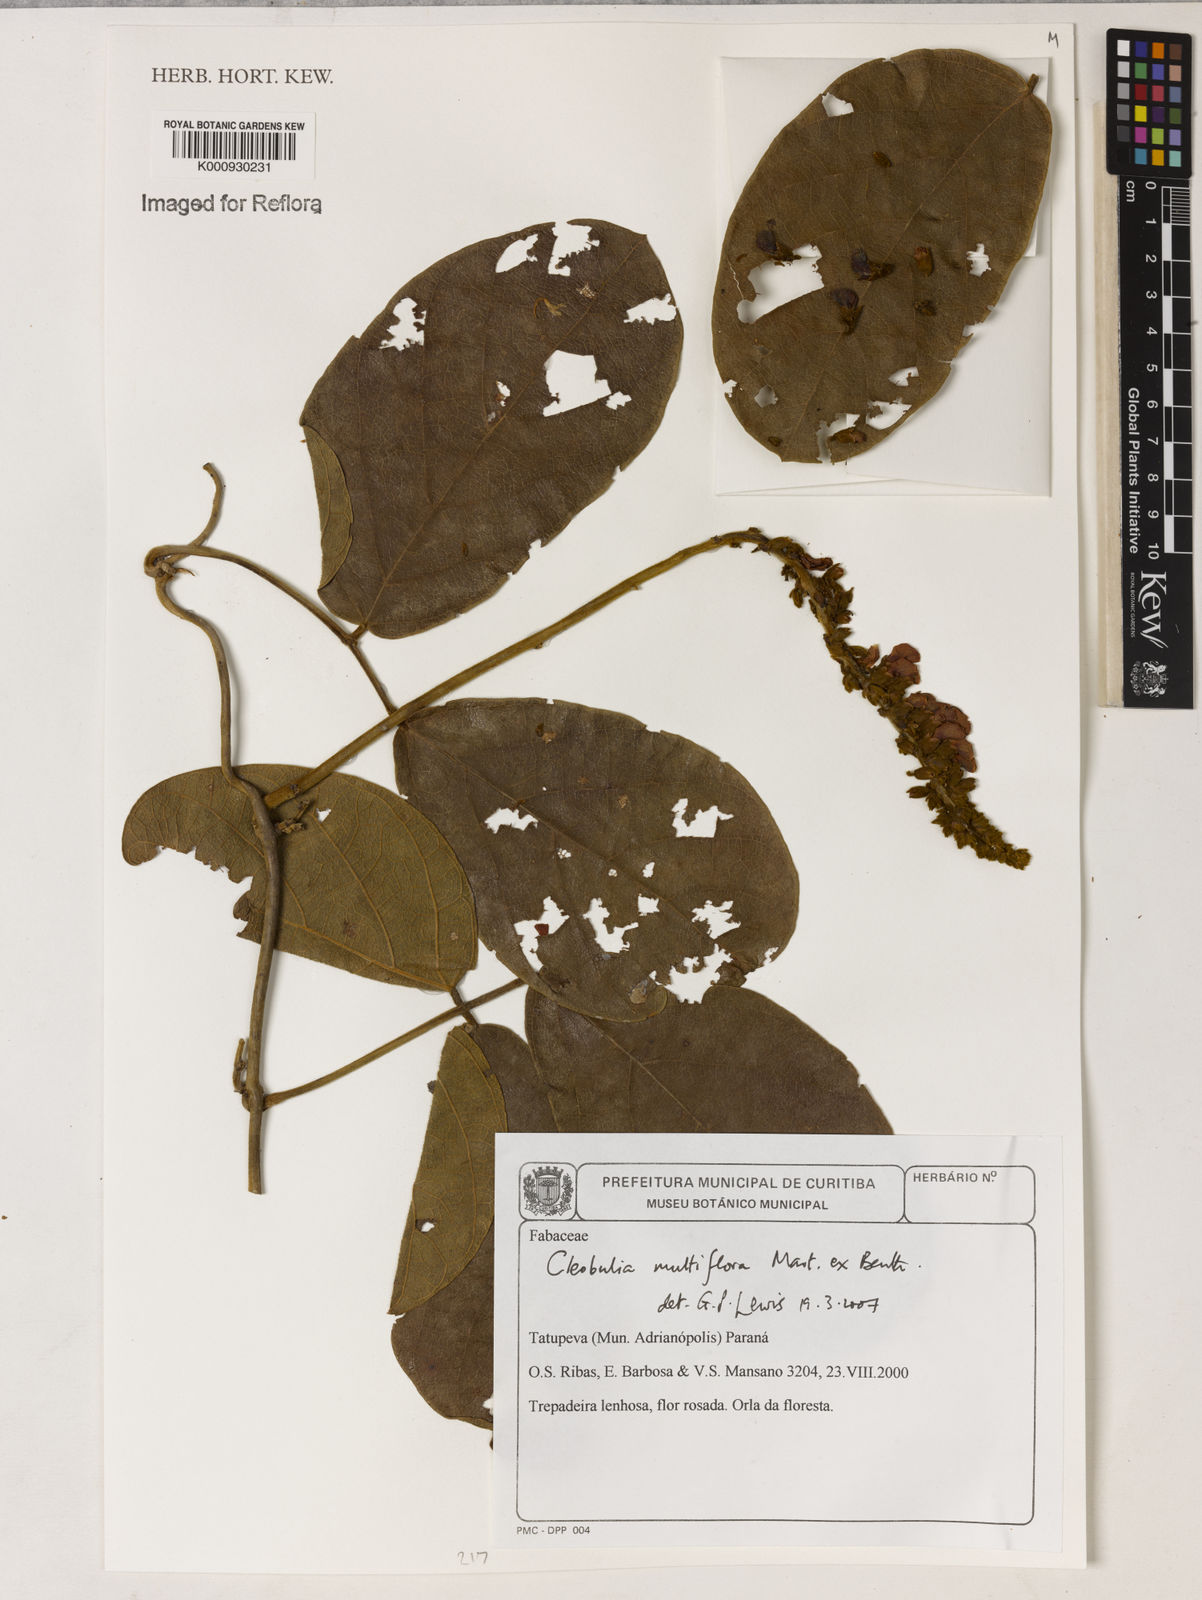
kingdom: Plantae
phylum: Tracheophyta
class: Magnoliopsida
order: Fabales
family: Fabaceae
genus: Cleobulia
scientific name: Cleobulia coccinea
